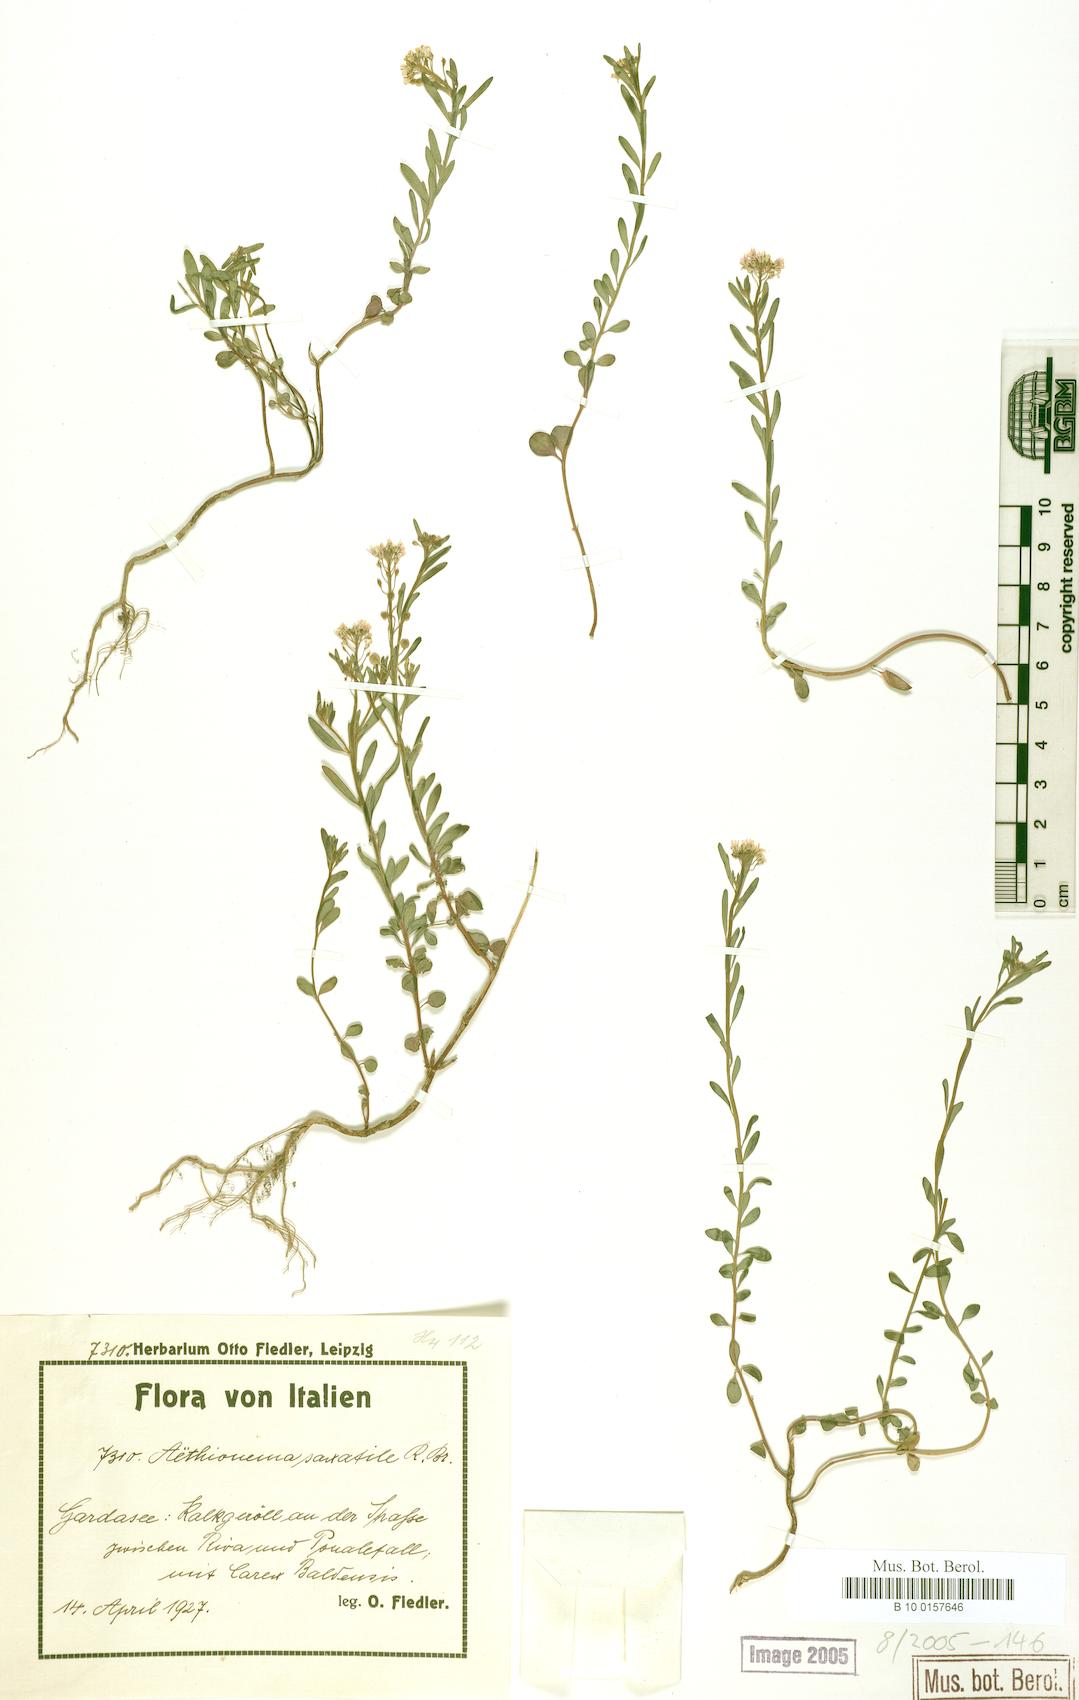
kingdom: Plantae
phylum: Tracheophyta
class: Magnoliopsida
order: Brassicales
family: Brassicaceae
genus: Aethionema
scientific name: Aethionema saxatile
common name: Burnt candytuft
